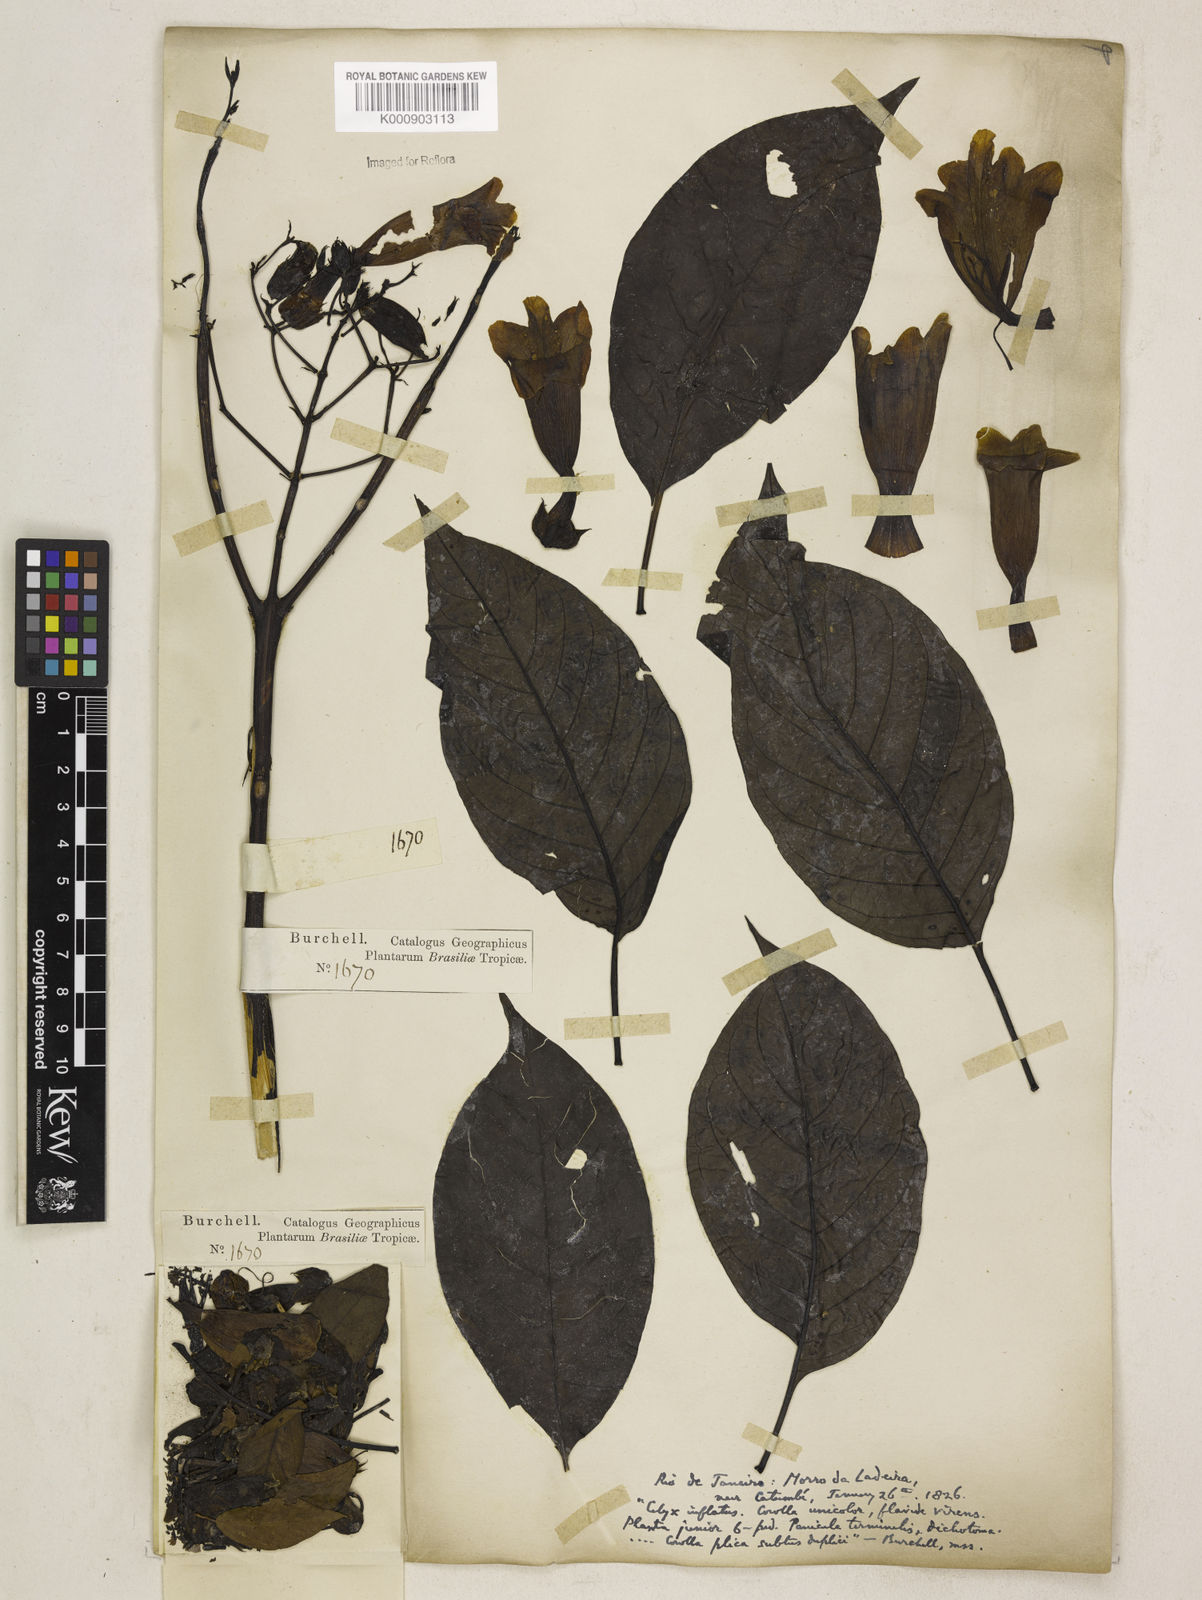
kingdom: Plantae
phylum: Tracheophyta
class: Magnoliopsida
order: Lamiales
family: Bignoniaceae
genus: Cybistax
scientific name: Cybistax antisyphilitica
